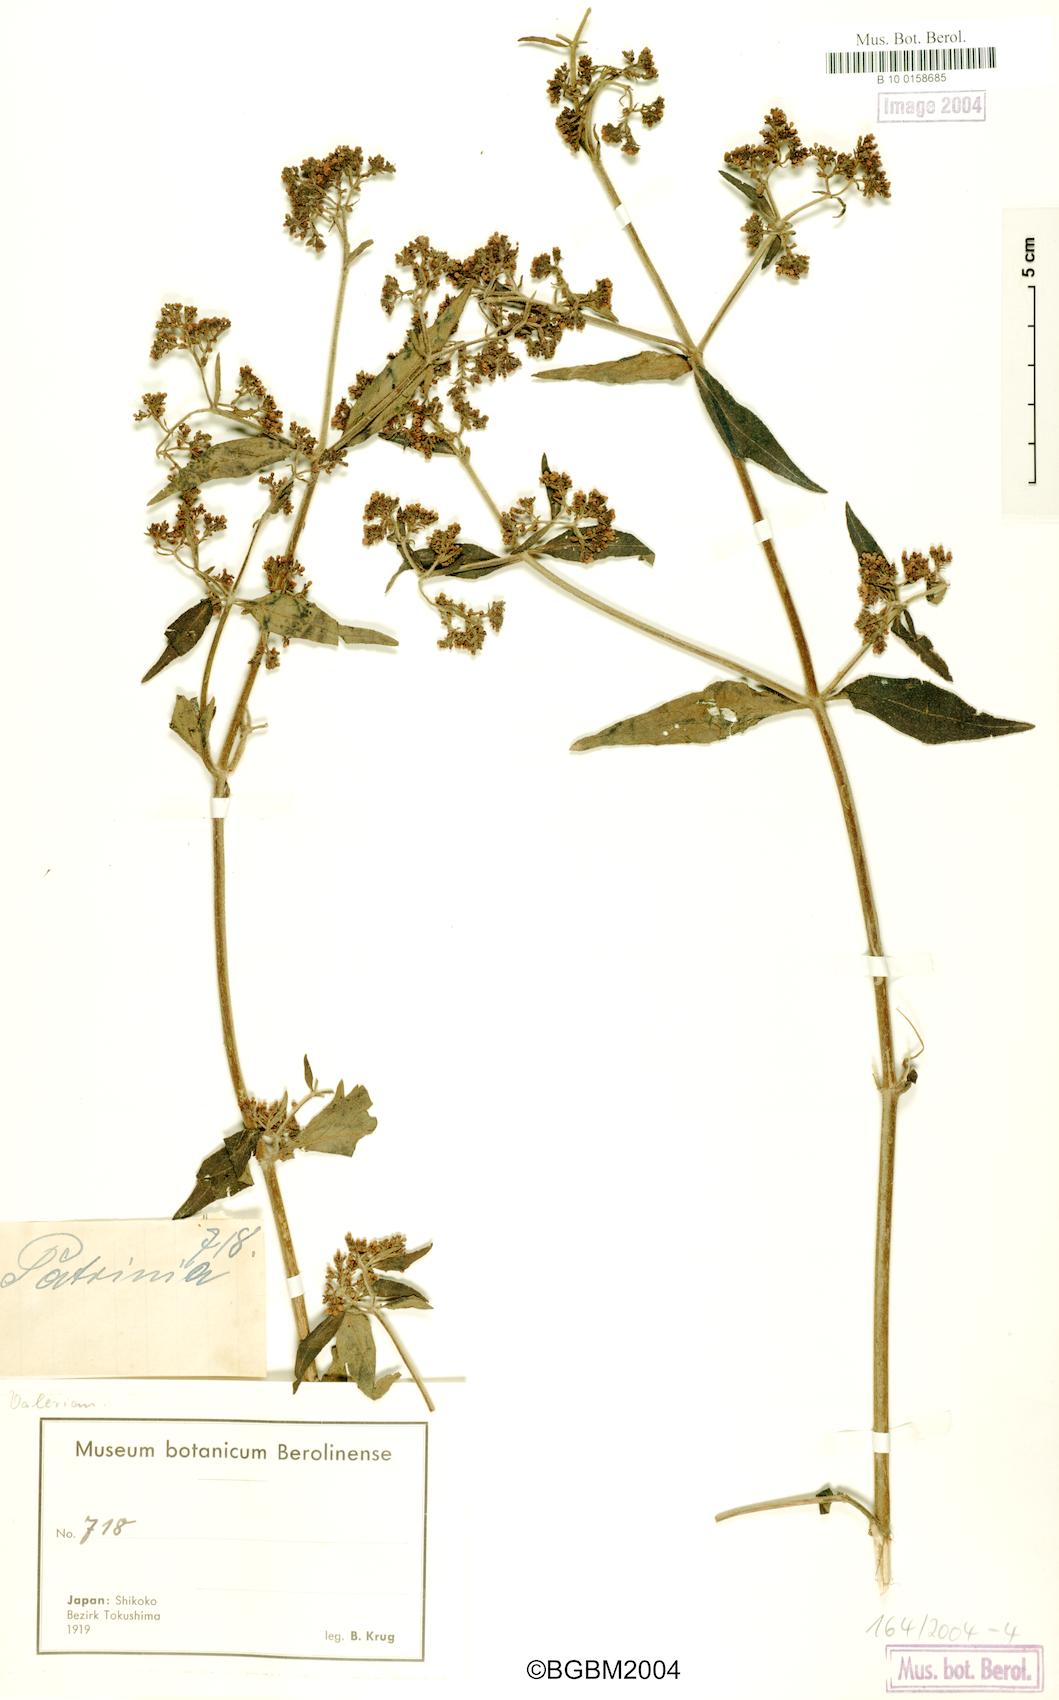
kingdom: Plantae
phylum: Tracheophyta
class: Magnoliopsida
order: Dipsacales
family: Caprifoliaceae
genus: Patrinia
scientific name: Patrinia
